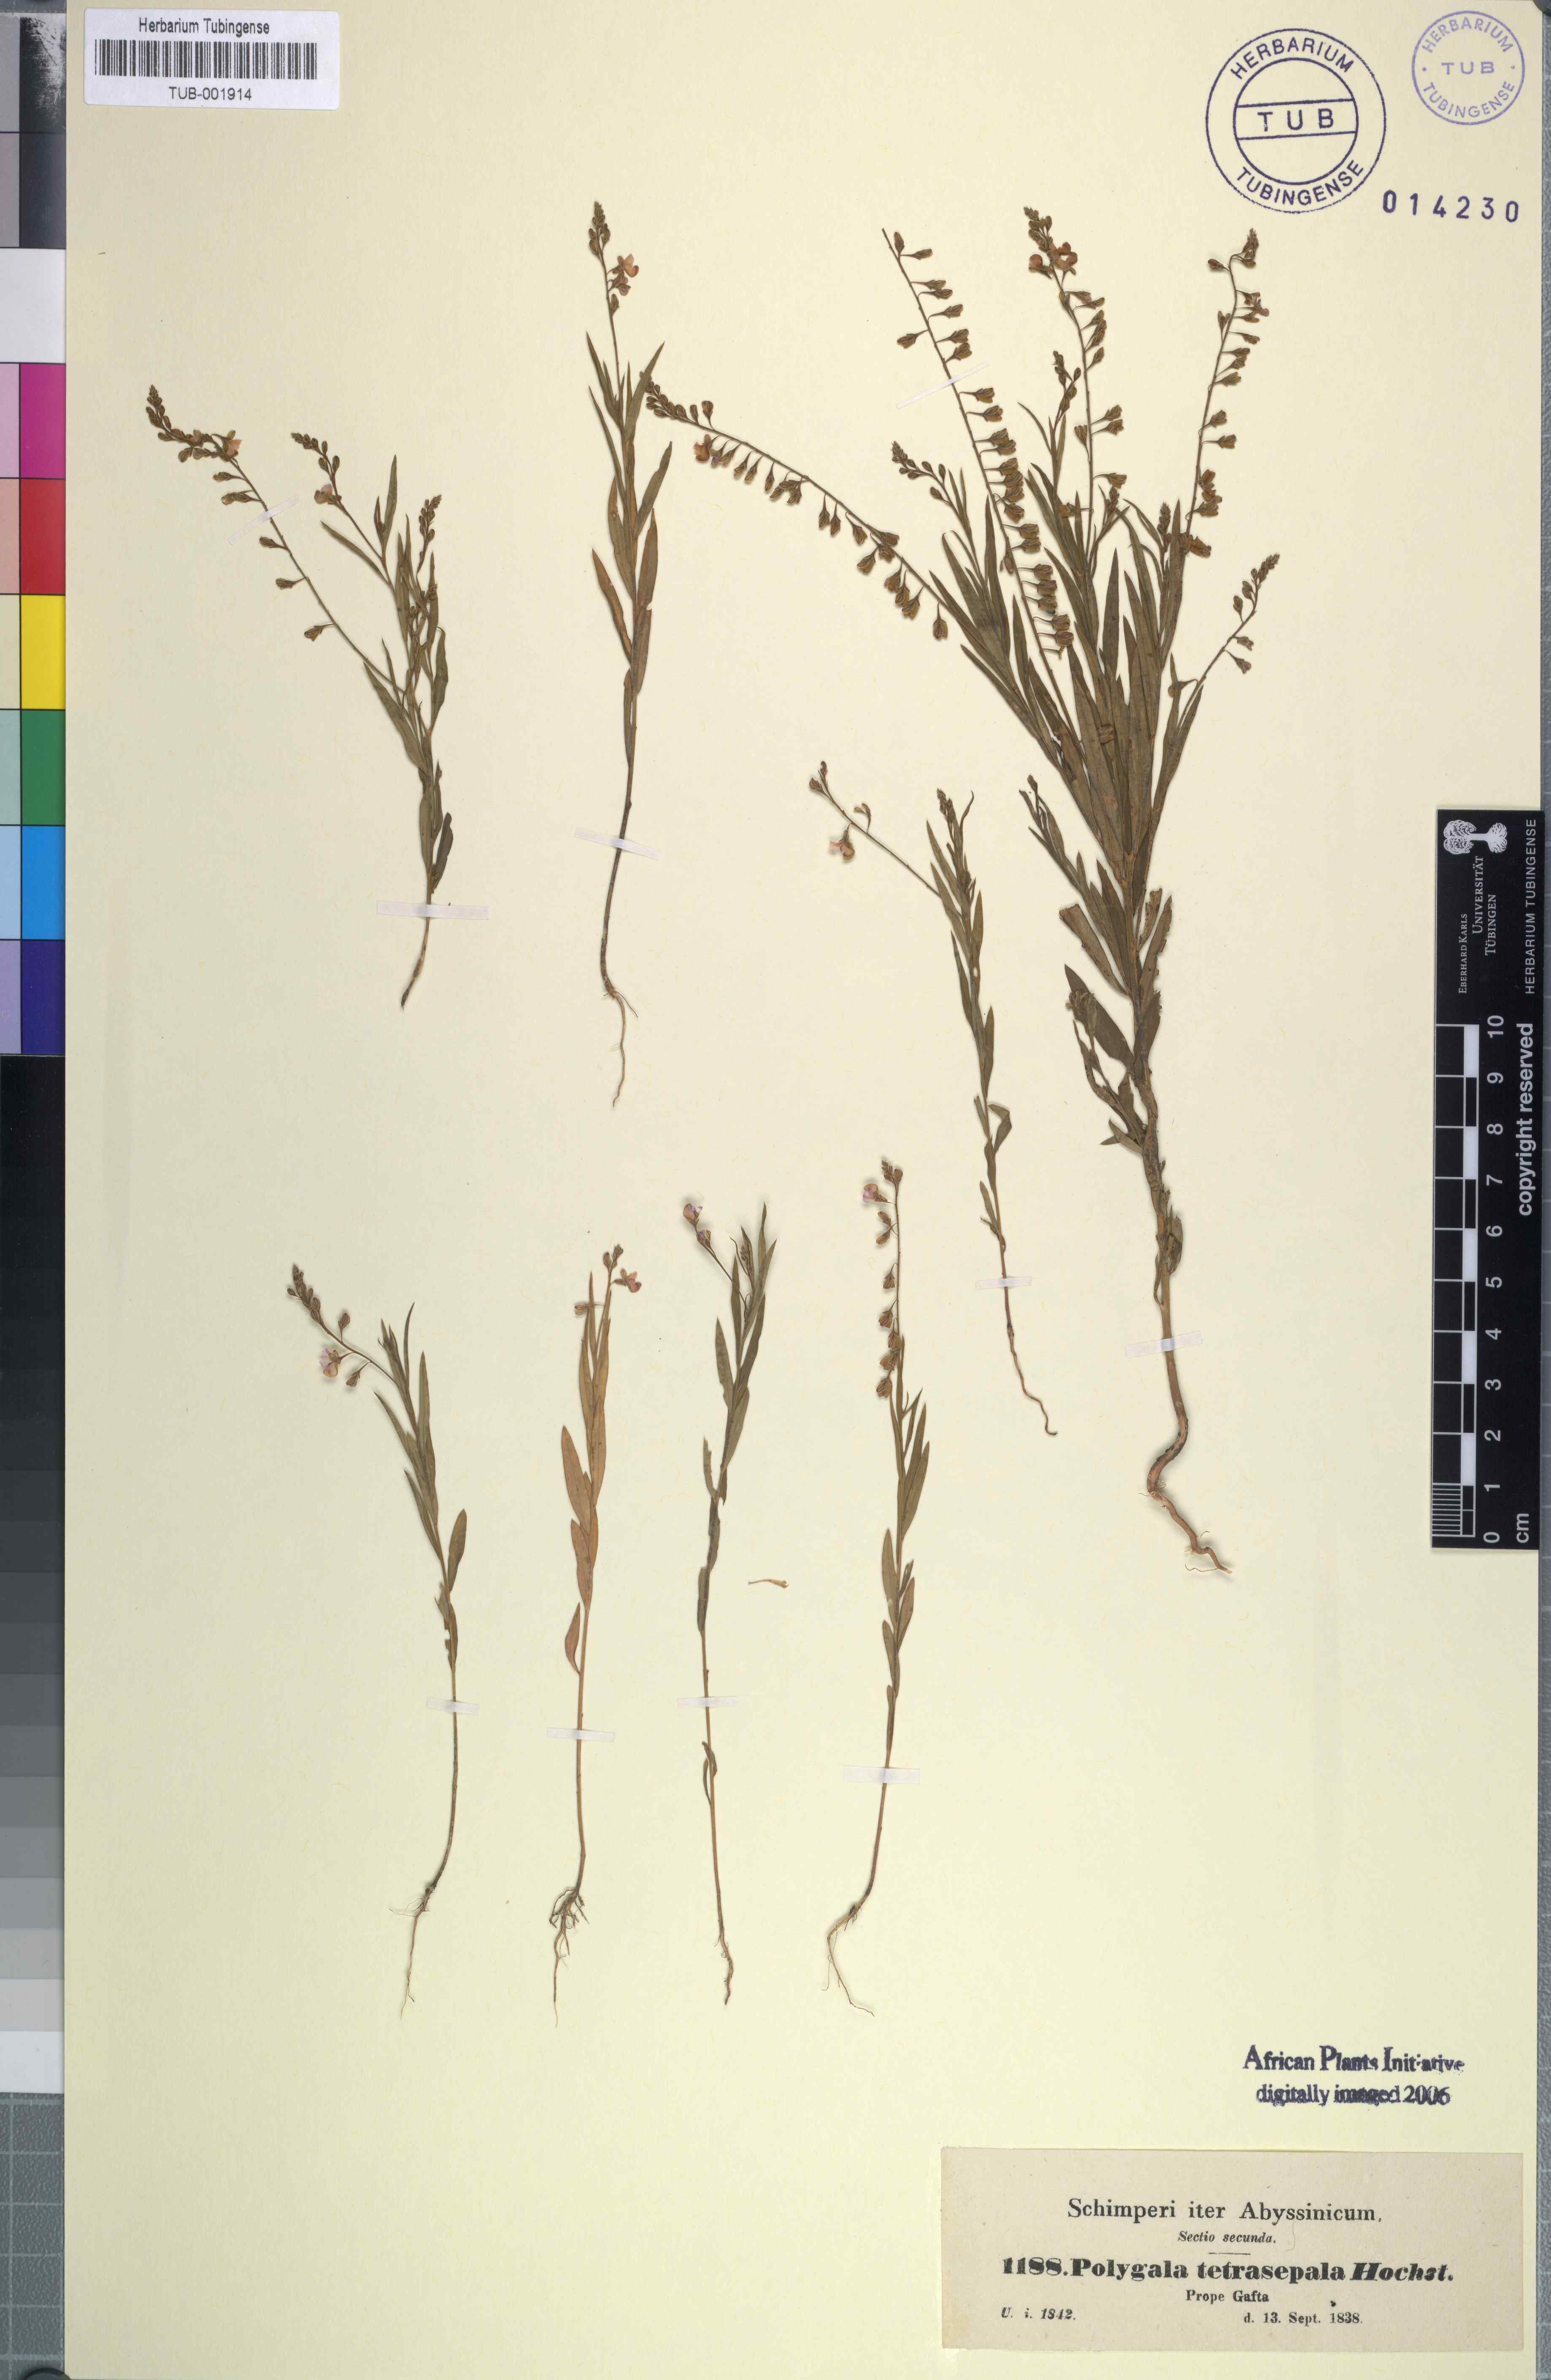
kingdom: Plantae
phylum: Tracheophyta
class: Magnoliopsida
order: Fabales
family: Polygalaceae
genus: Polygala
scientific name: Polygala petitiana
